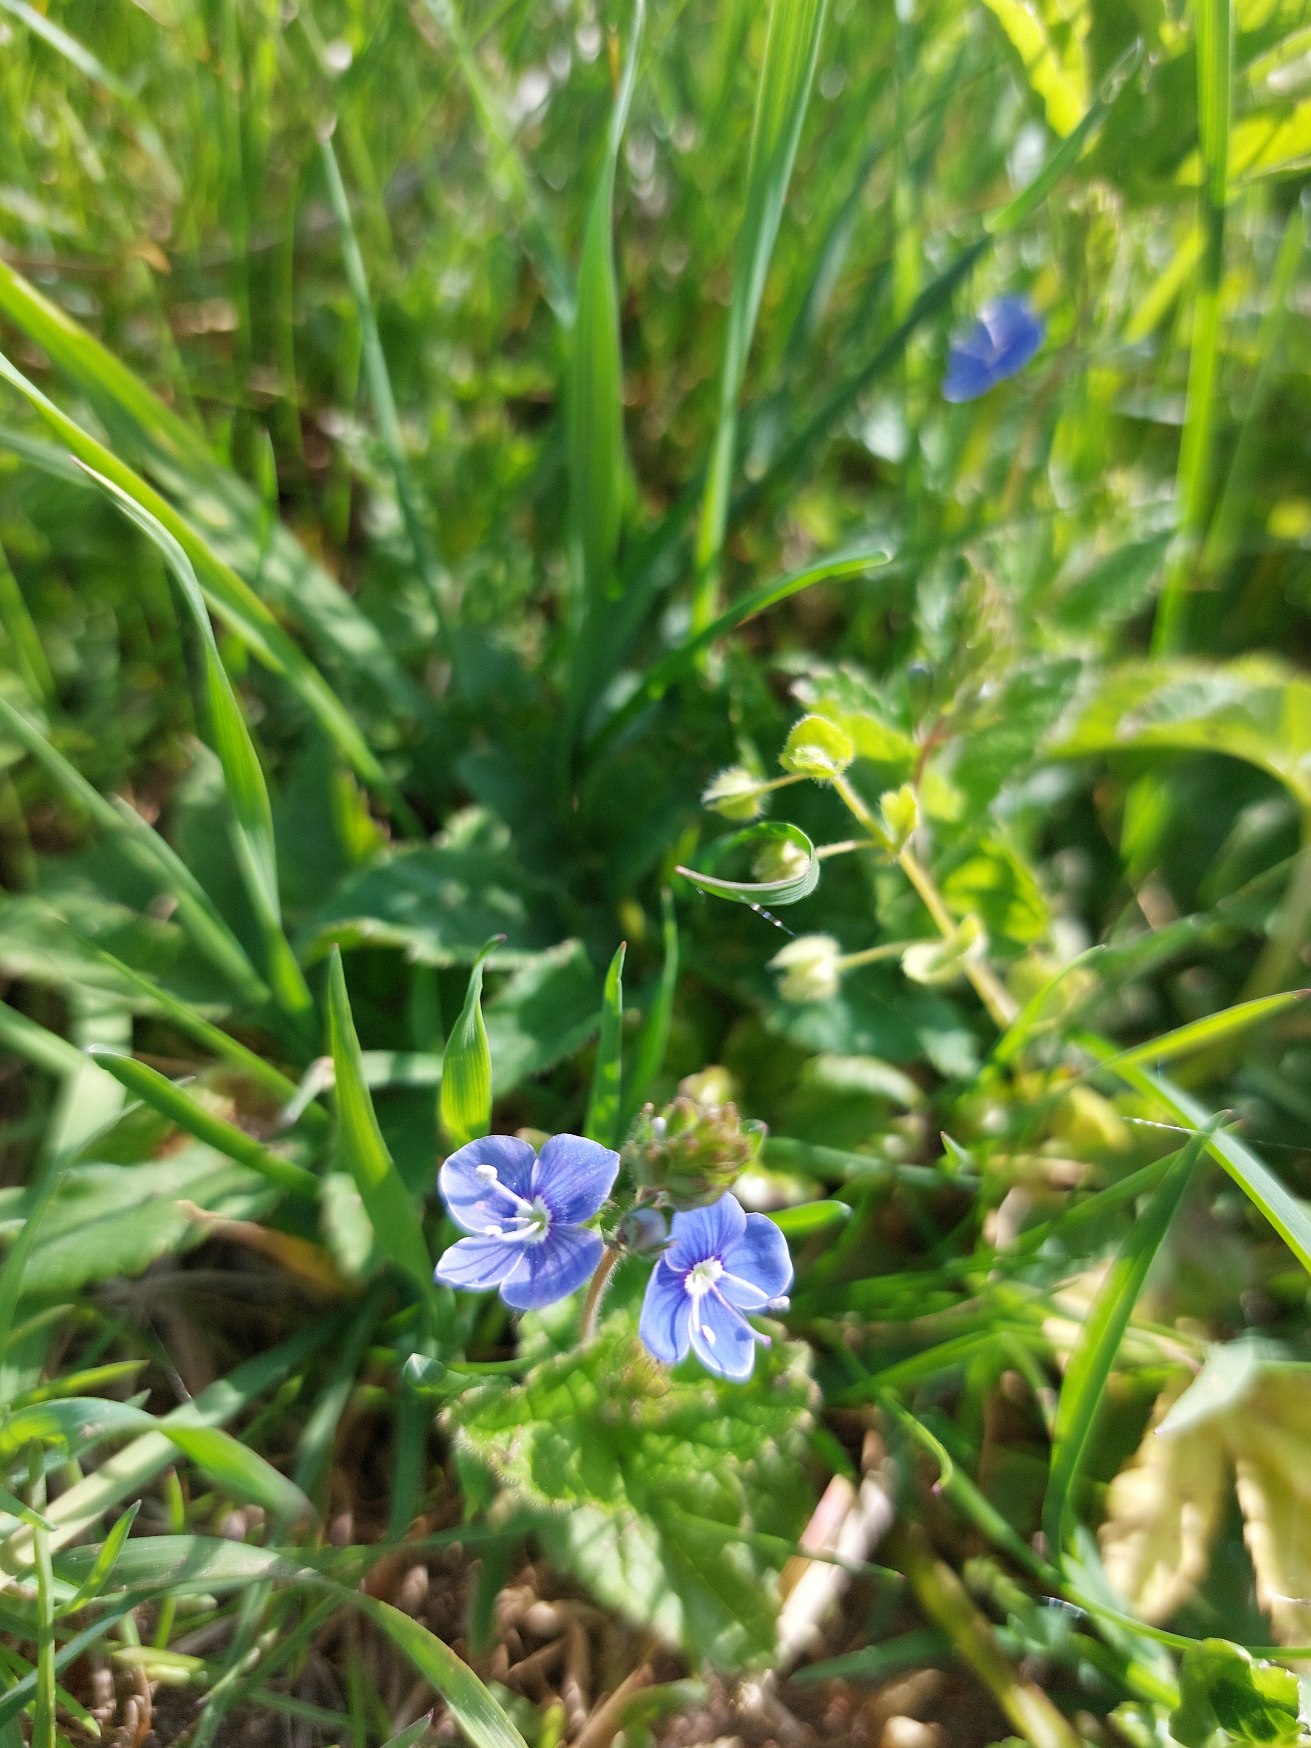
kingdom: Plantae
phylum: Tracheophyta
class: Magnoliopsida
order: Lamiales
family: Plantaginaceae
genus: Veronica
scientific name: Veronica chamaedrys
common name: Tveskægget ærenpris
